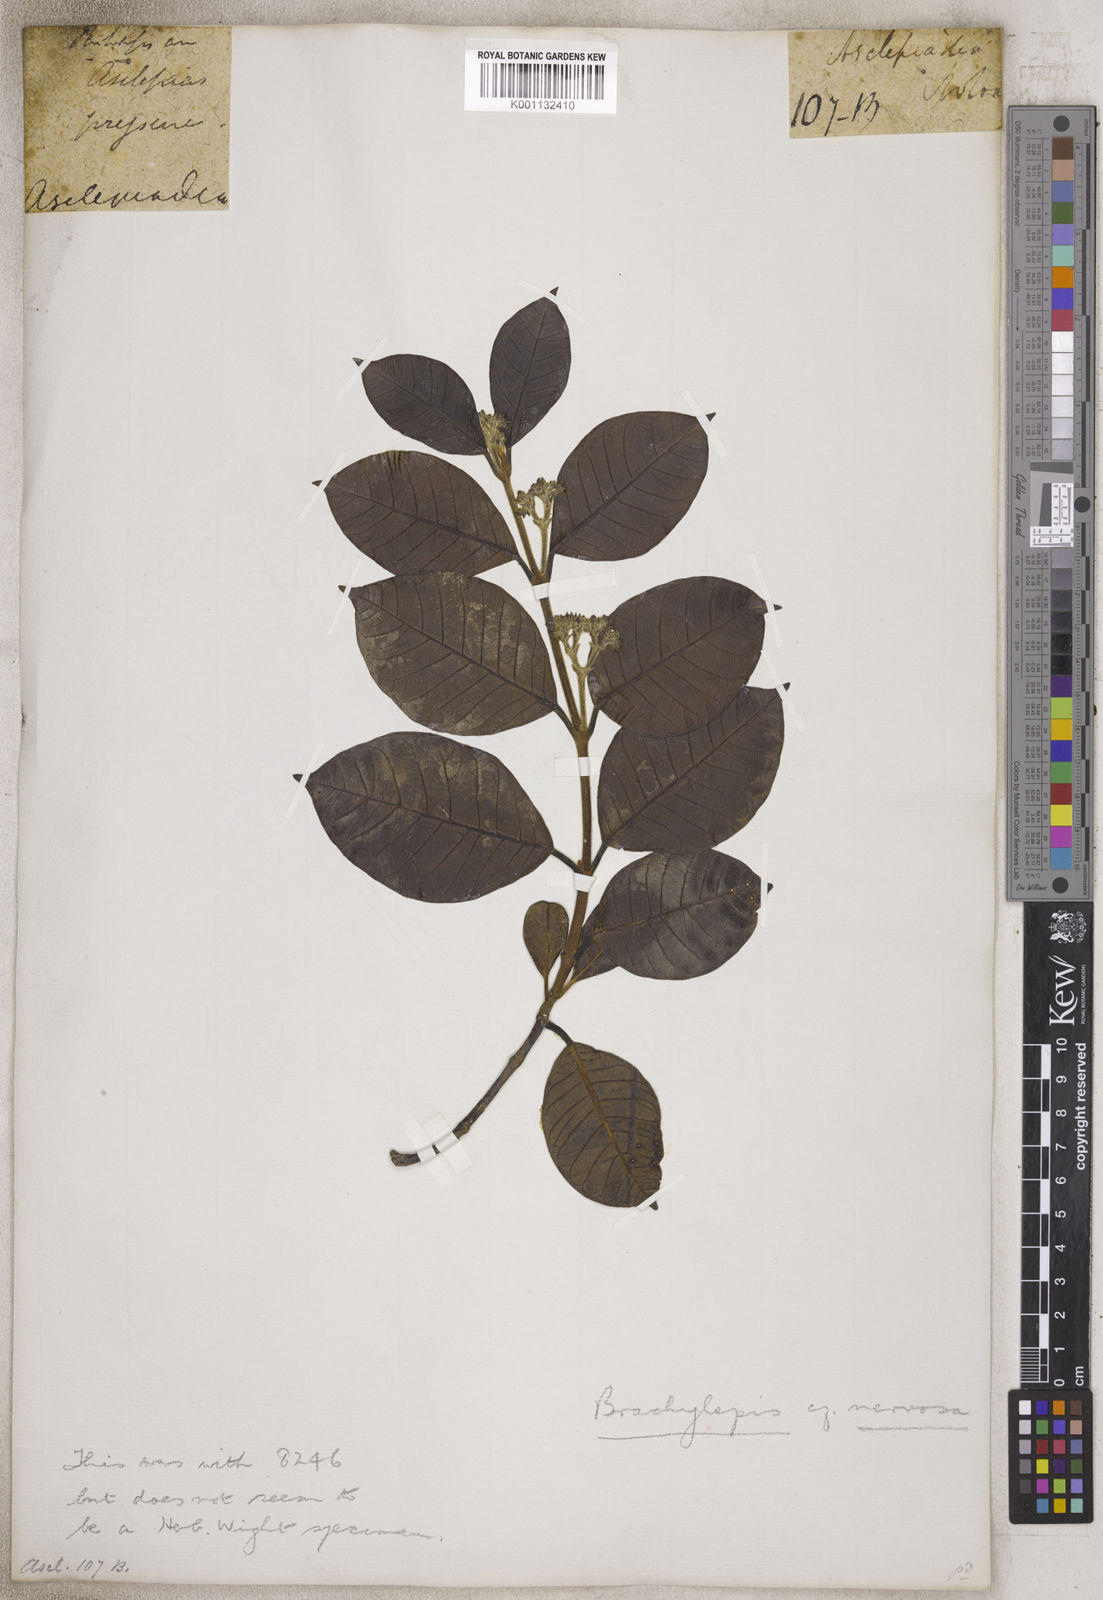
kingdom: Plantae
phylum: Tracheophyta
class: Magnoliopsida
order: Caryophyllales
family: Amaranthaceae
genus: Brachylepis
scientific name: Brachylepis
